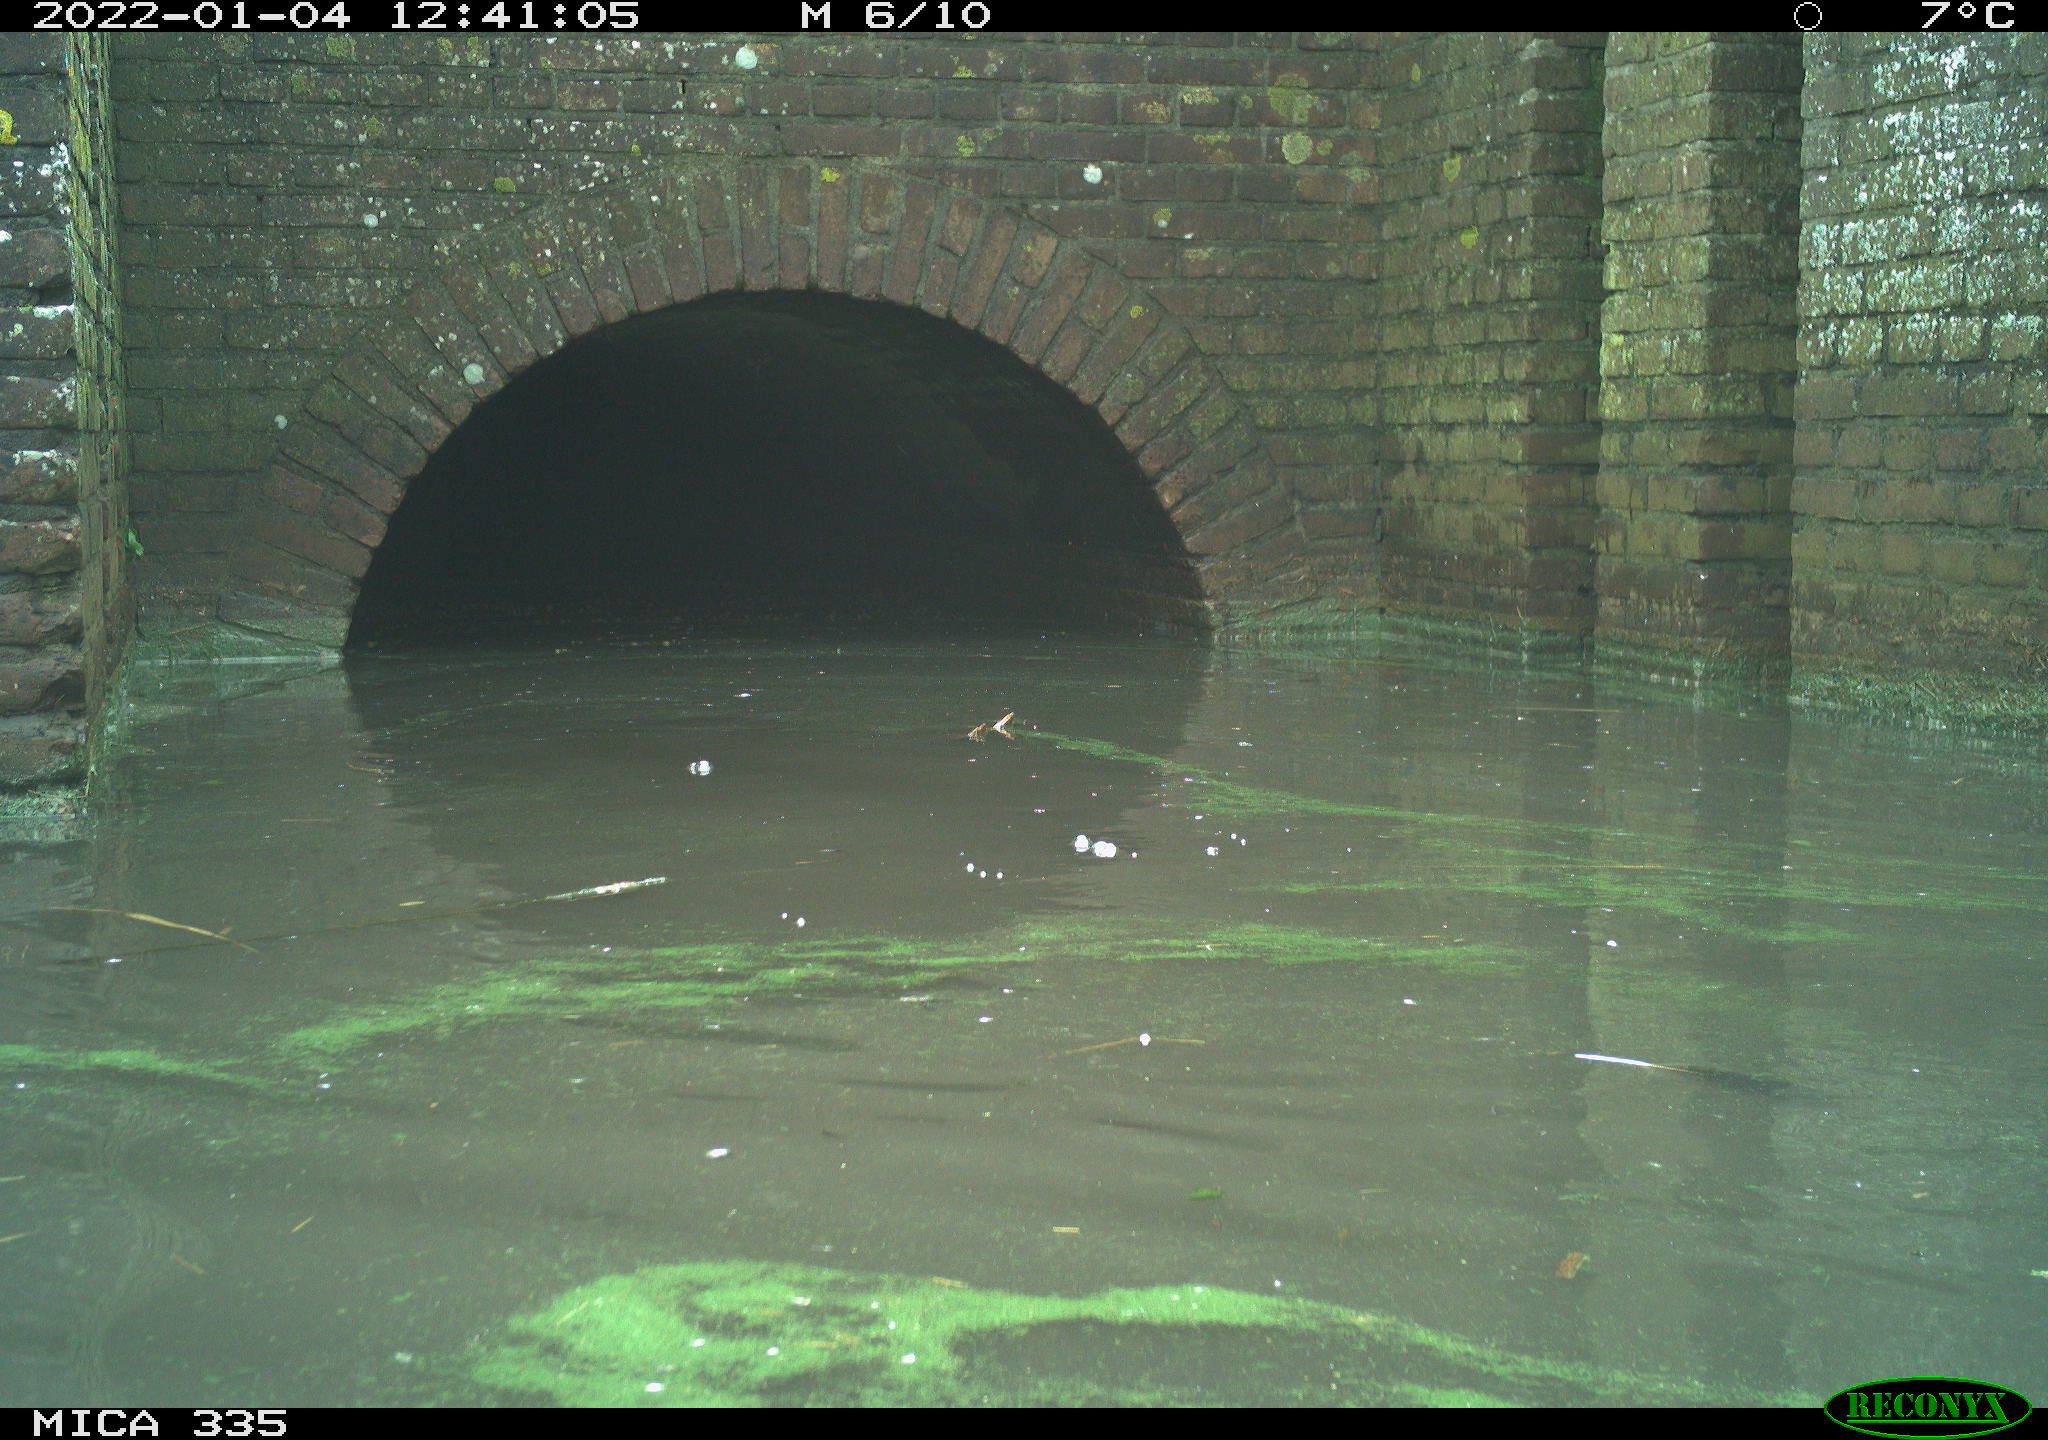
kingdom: Animalia
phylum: Chordata
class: Aves
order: Suliformes
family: Phalacrocoracidae
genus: Phalacrocorax
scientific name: Phalacrocorax carbo
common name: Great cormorant
